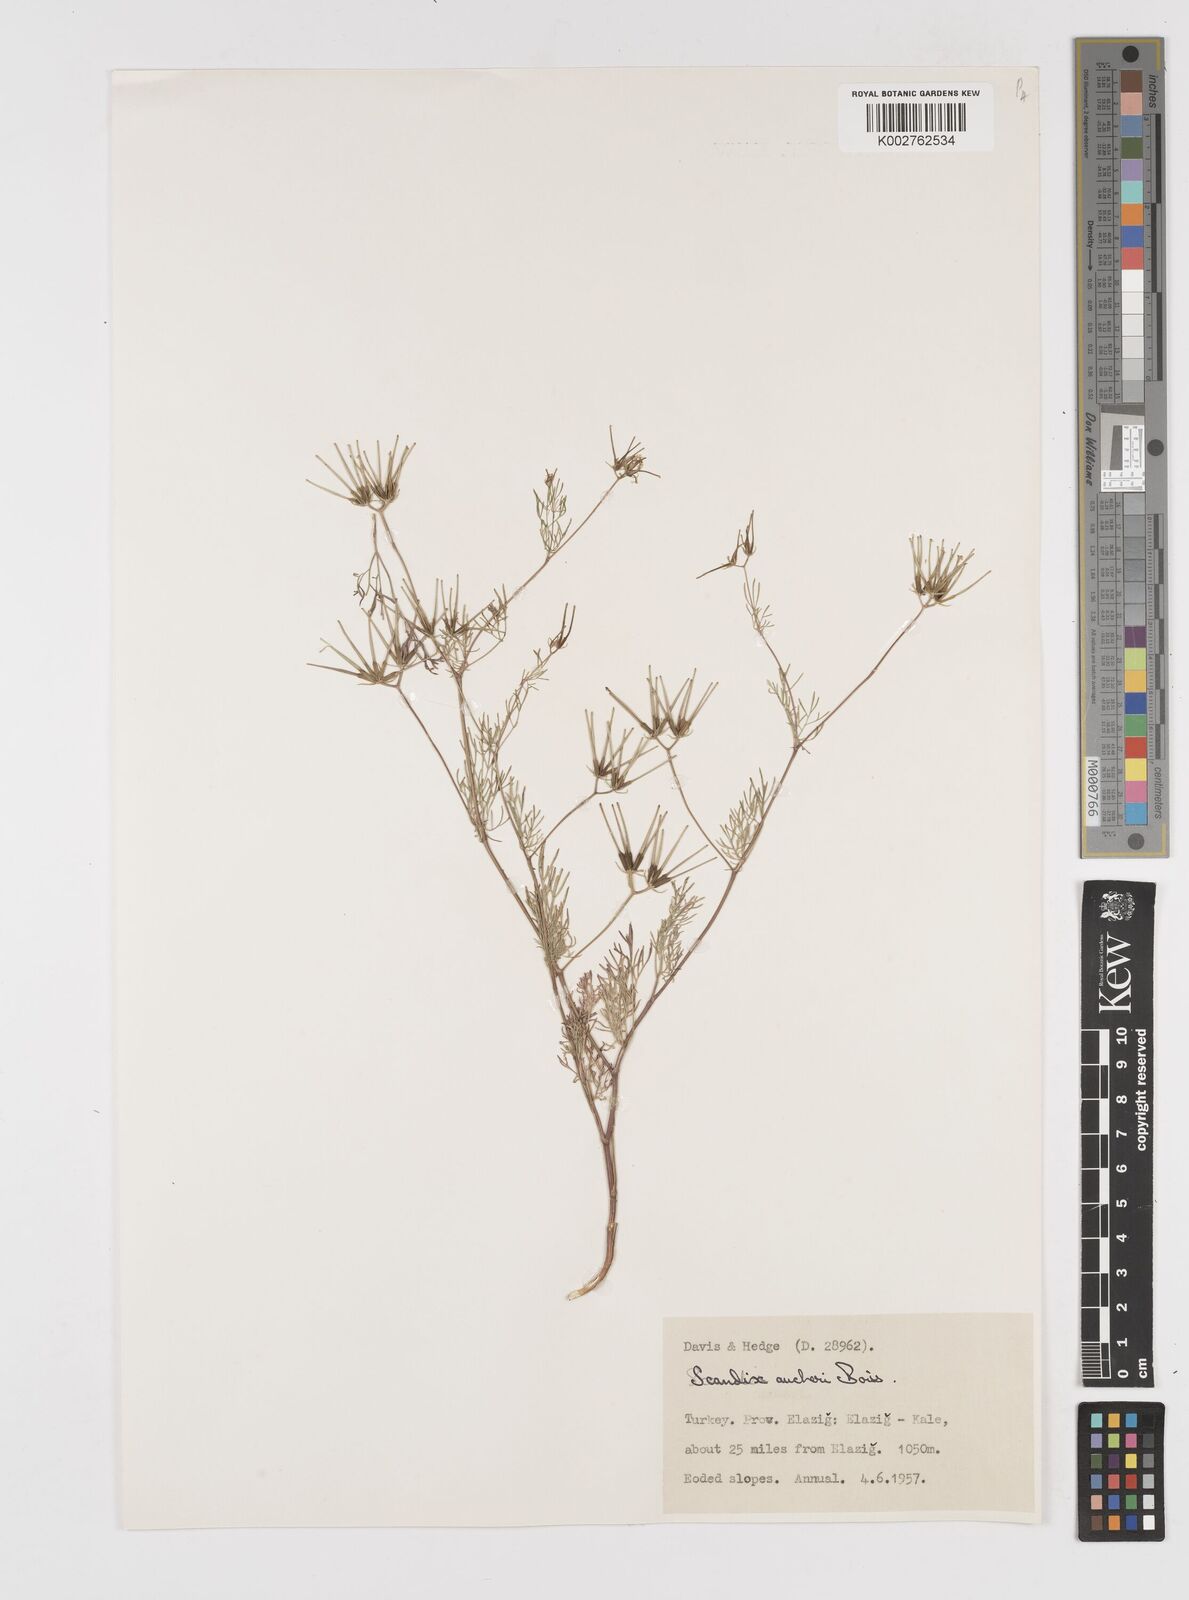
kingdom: Plantae
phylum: Tracheophyta
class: Magnoliopsida
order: Apiales
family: Apiaceae
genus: Scandix
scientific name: Scandix aucheri
